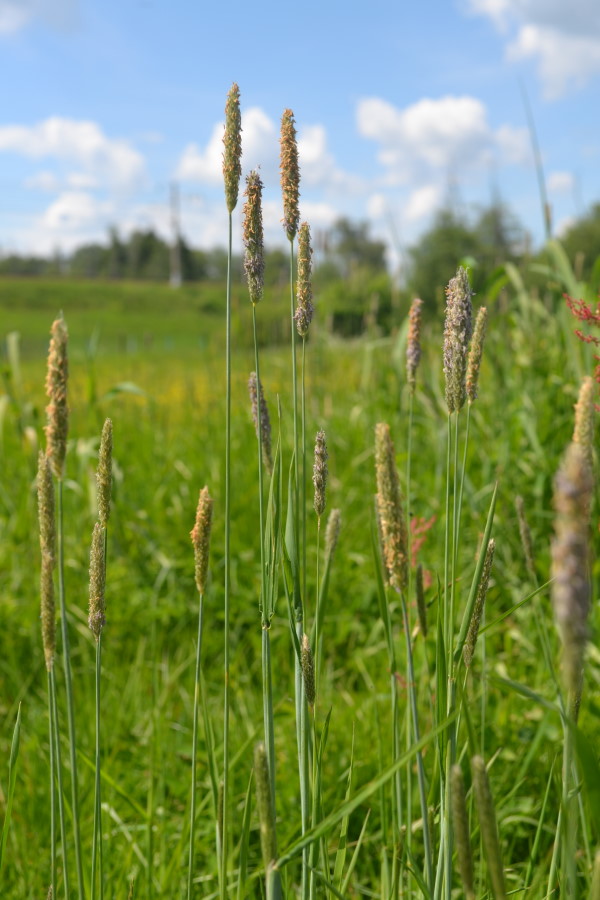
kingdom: Plantae
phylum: Tracheophyta
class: Liliopsida
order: Poales
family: Poaceae
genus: Alopecurus
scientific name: Alopecurus pratensis
